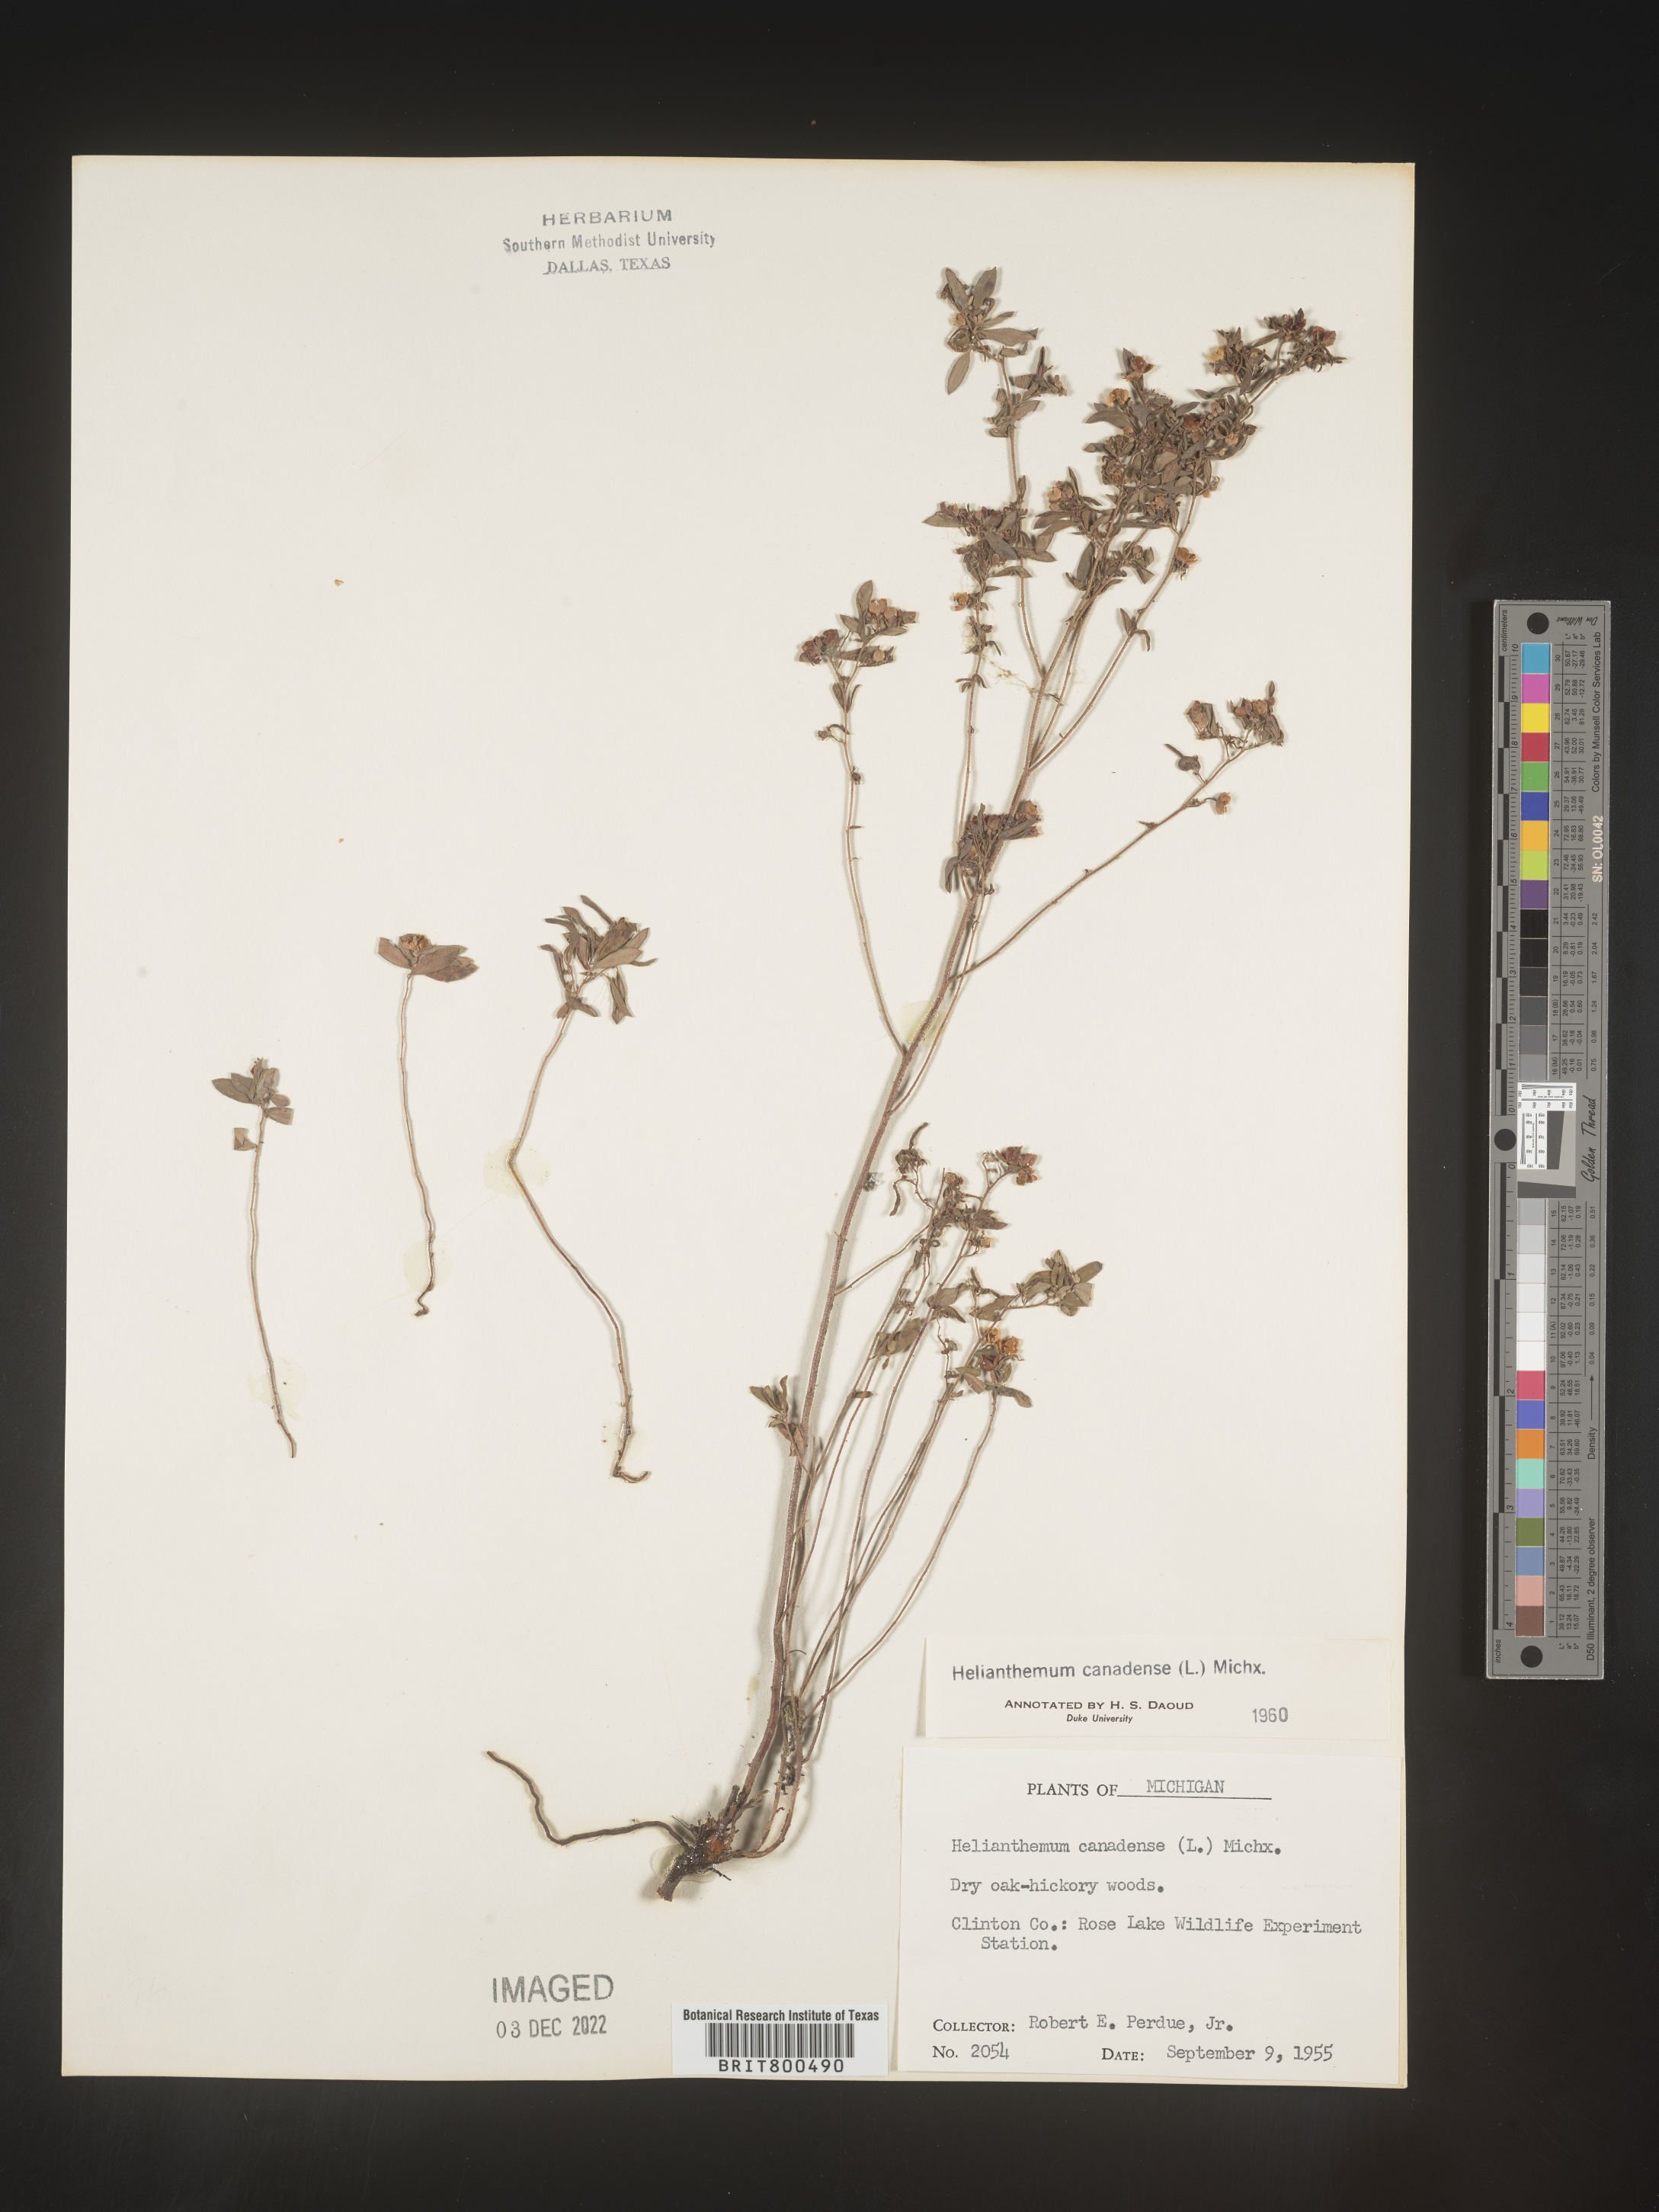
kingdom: Plantae
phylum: Tracheophyta
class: Magnoliopsida
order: Malvales
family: Cistaceae
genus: Crocanthemum
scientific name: Crocanthemum canadense
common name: Canada frostweed
